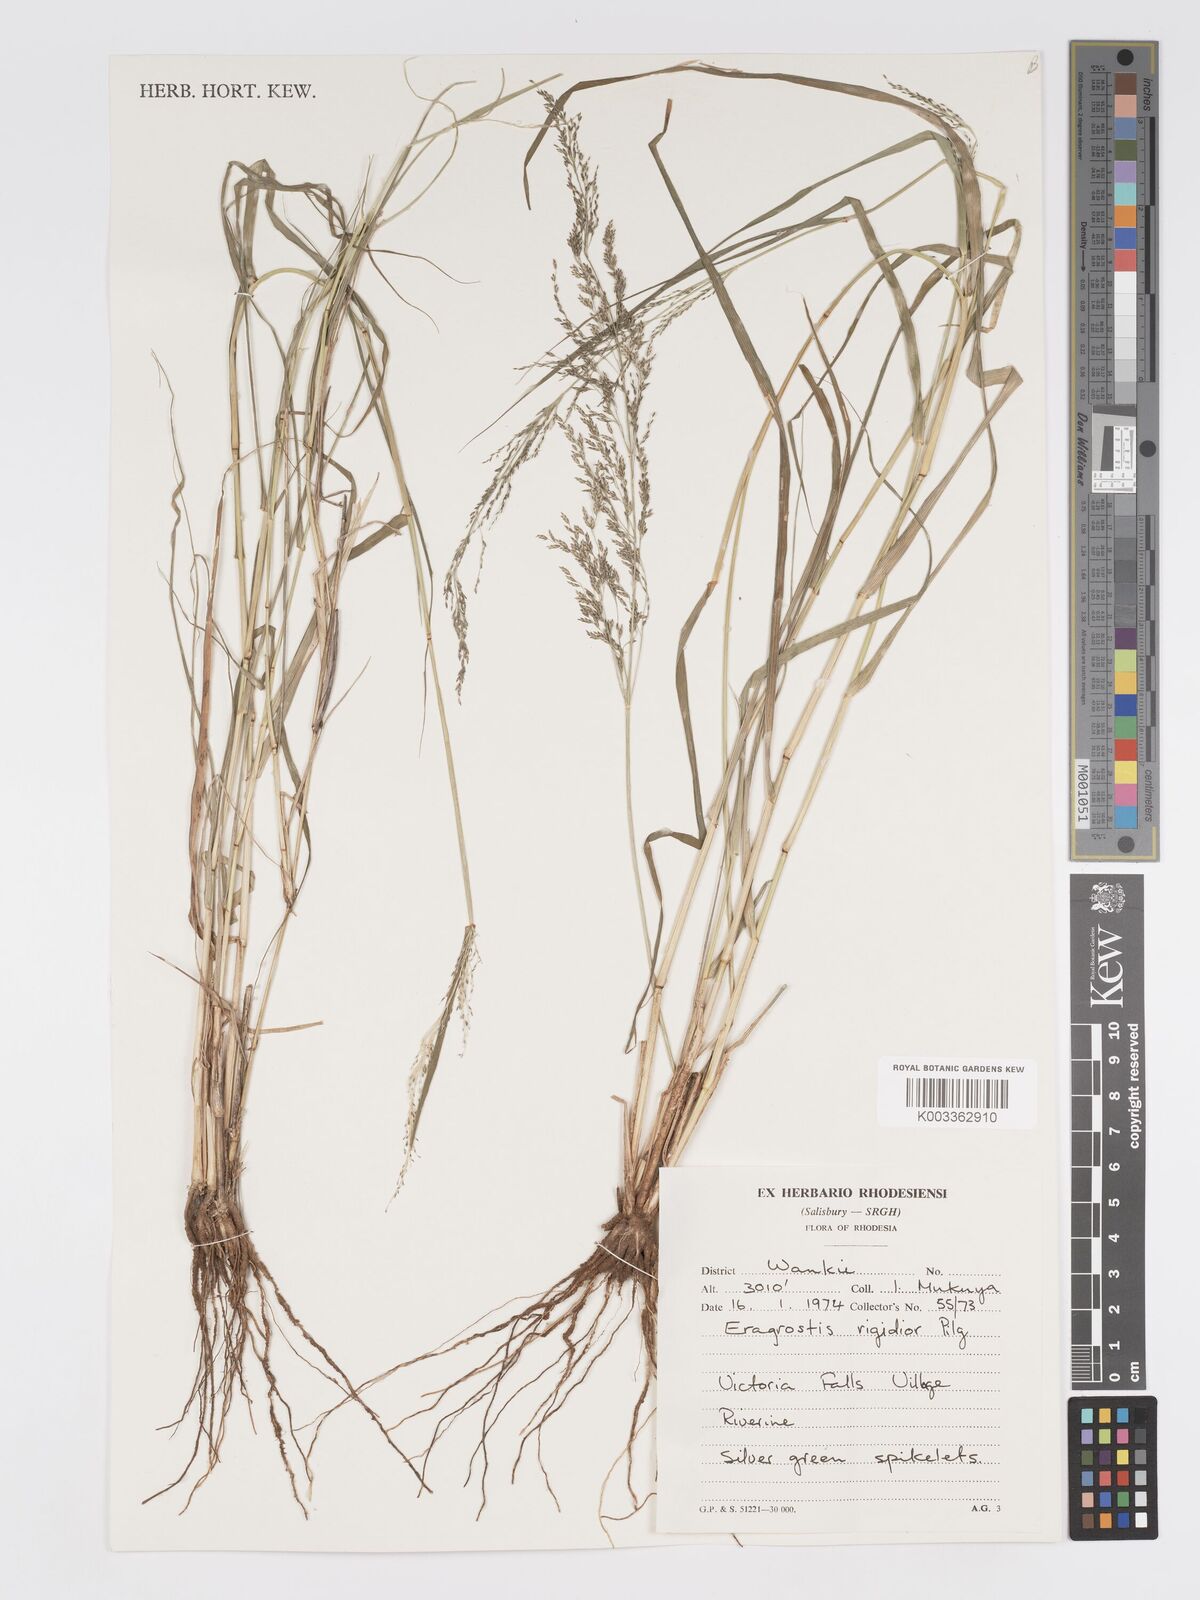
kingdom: Plantae
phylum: Tracheophyta
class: Liliopsida
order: Poales
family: Poaceae
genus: Eragrostis
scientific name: Eragrostis cylindriflora
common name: Cylinderflower lovegrass
